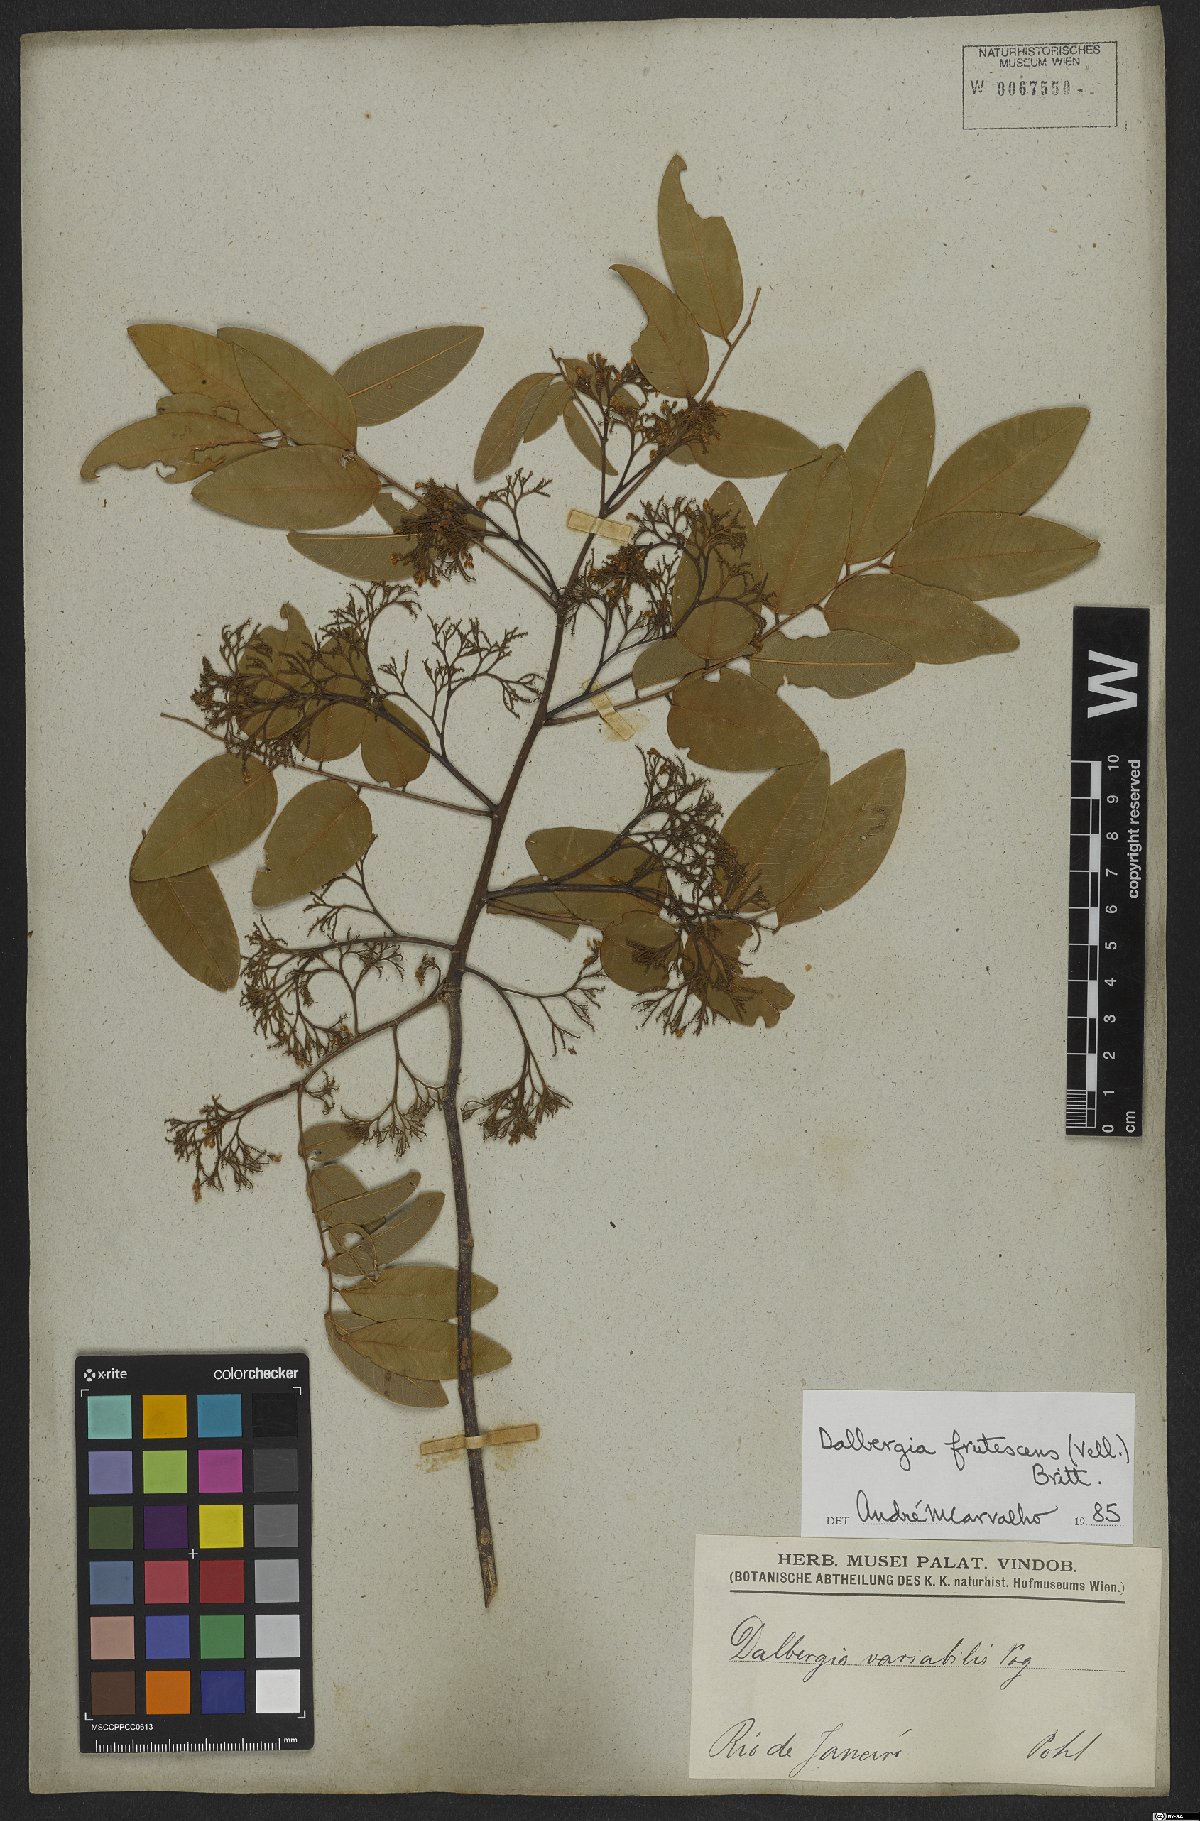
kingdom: Plantae
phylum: Tracheophyta
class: Magnoliopsida
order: Fabales
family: Fabaceae
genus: Dalbergia
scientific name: Dalbergia frutescens
